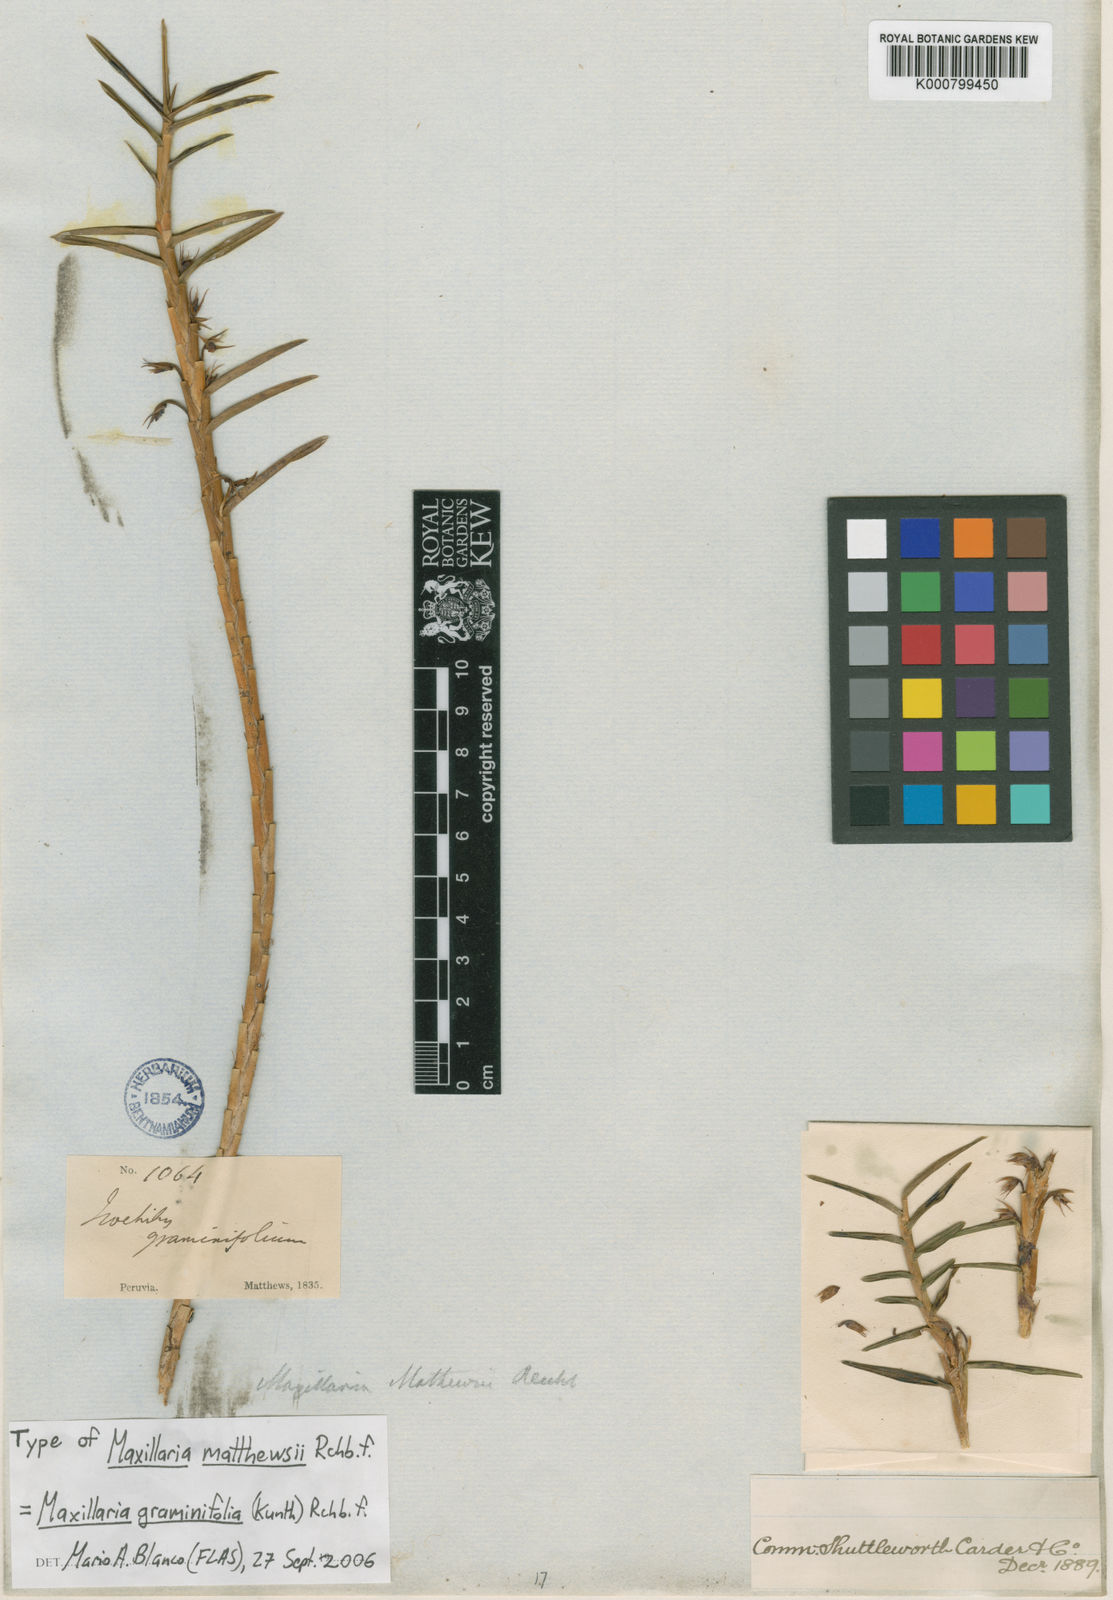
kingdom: Plantae
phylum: Tracheophyta
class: Liliopsida
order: Asparagales
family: Orchidaceae
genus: Maxillaria
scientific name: Maxillaria graminifolia
